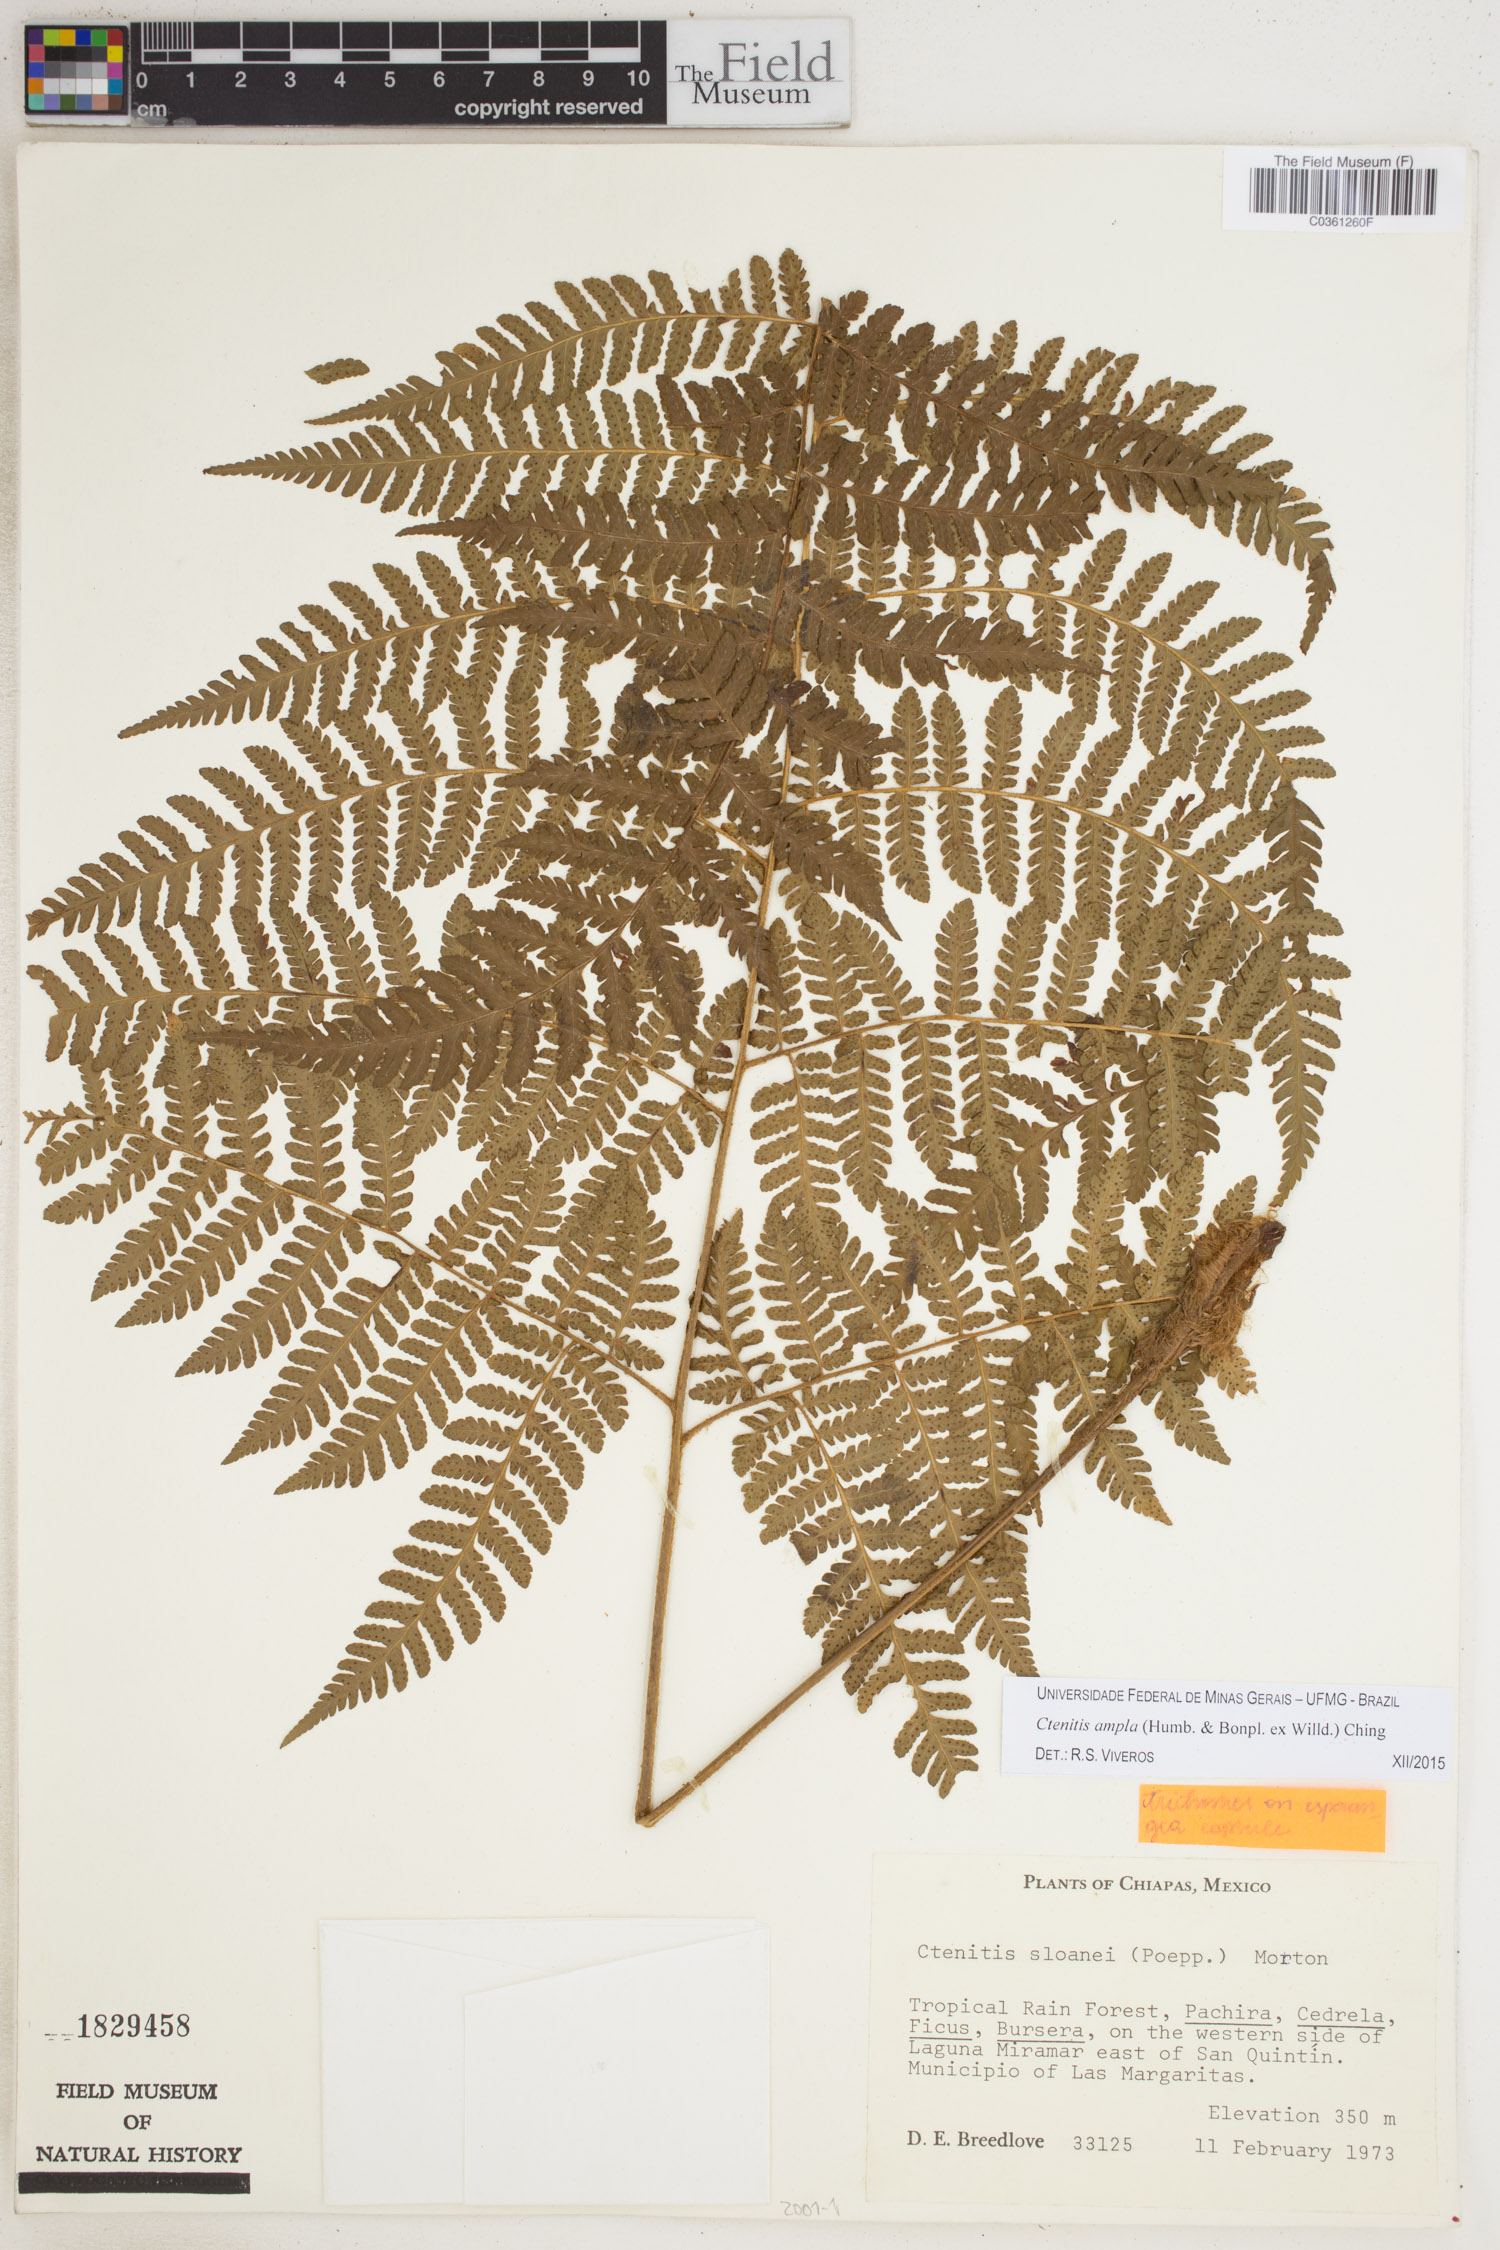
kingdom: Plantae
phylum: Tracheophyta
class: Polypodiopsida
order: Polypodiales
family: Dryopteridaceae
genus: Ctenitis
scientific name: Ctenitis sloanei
